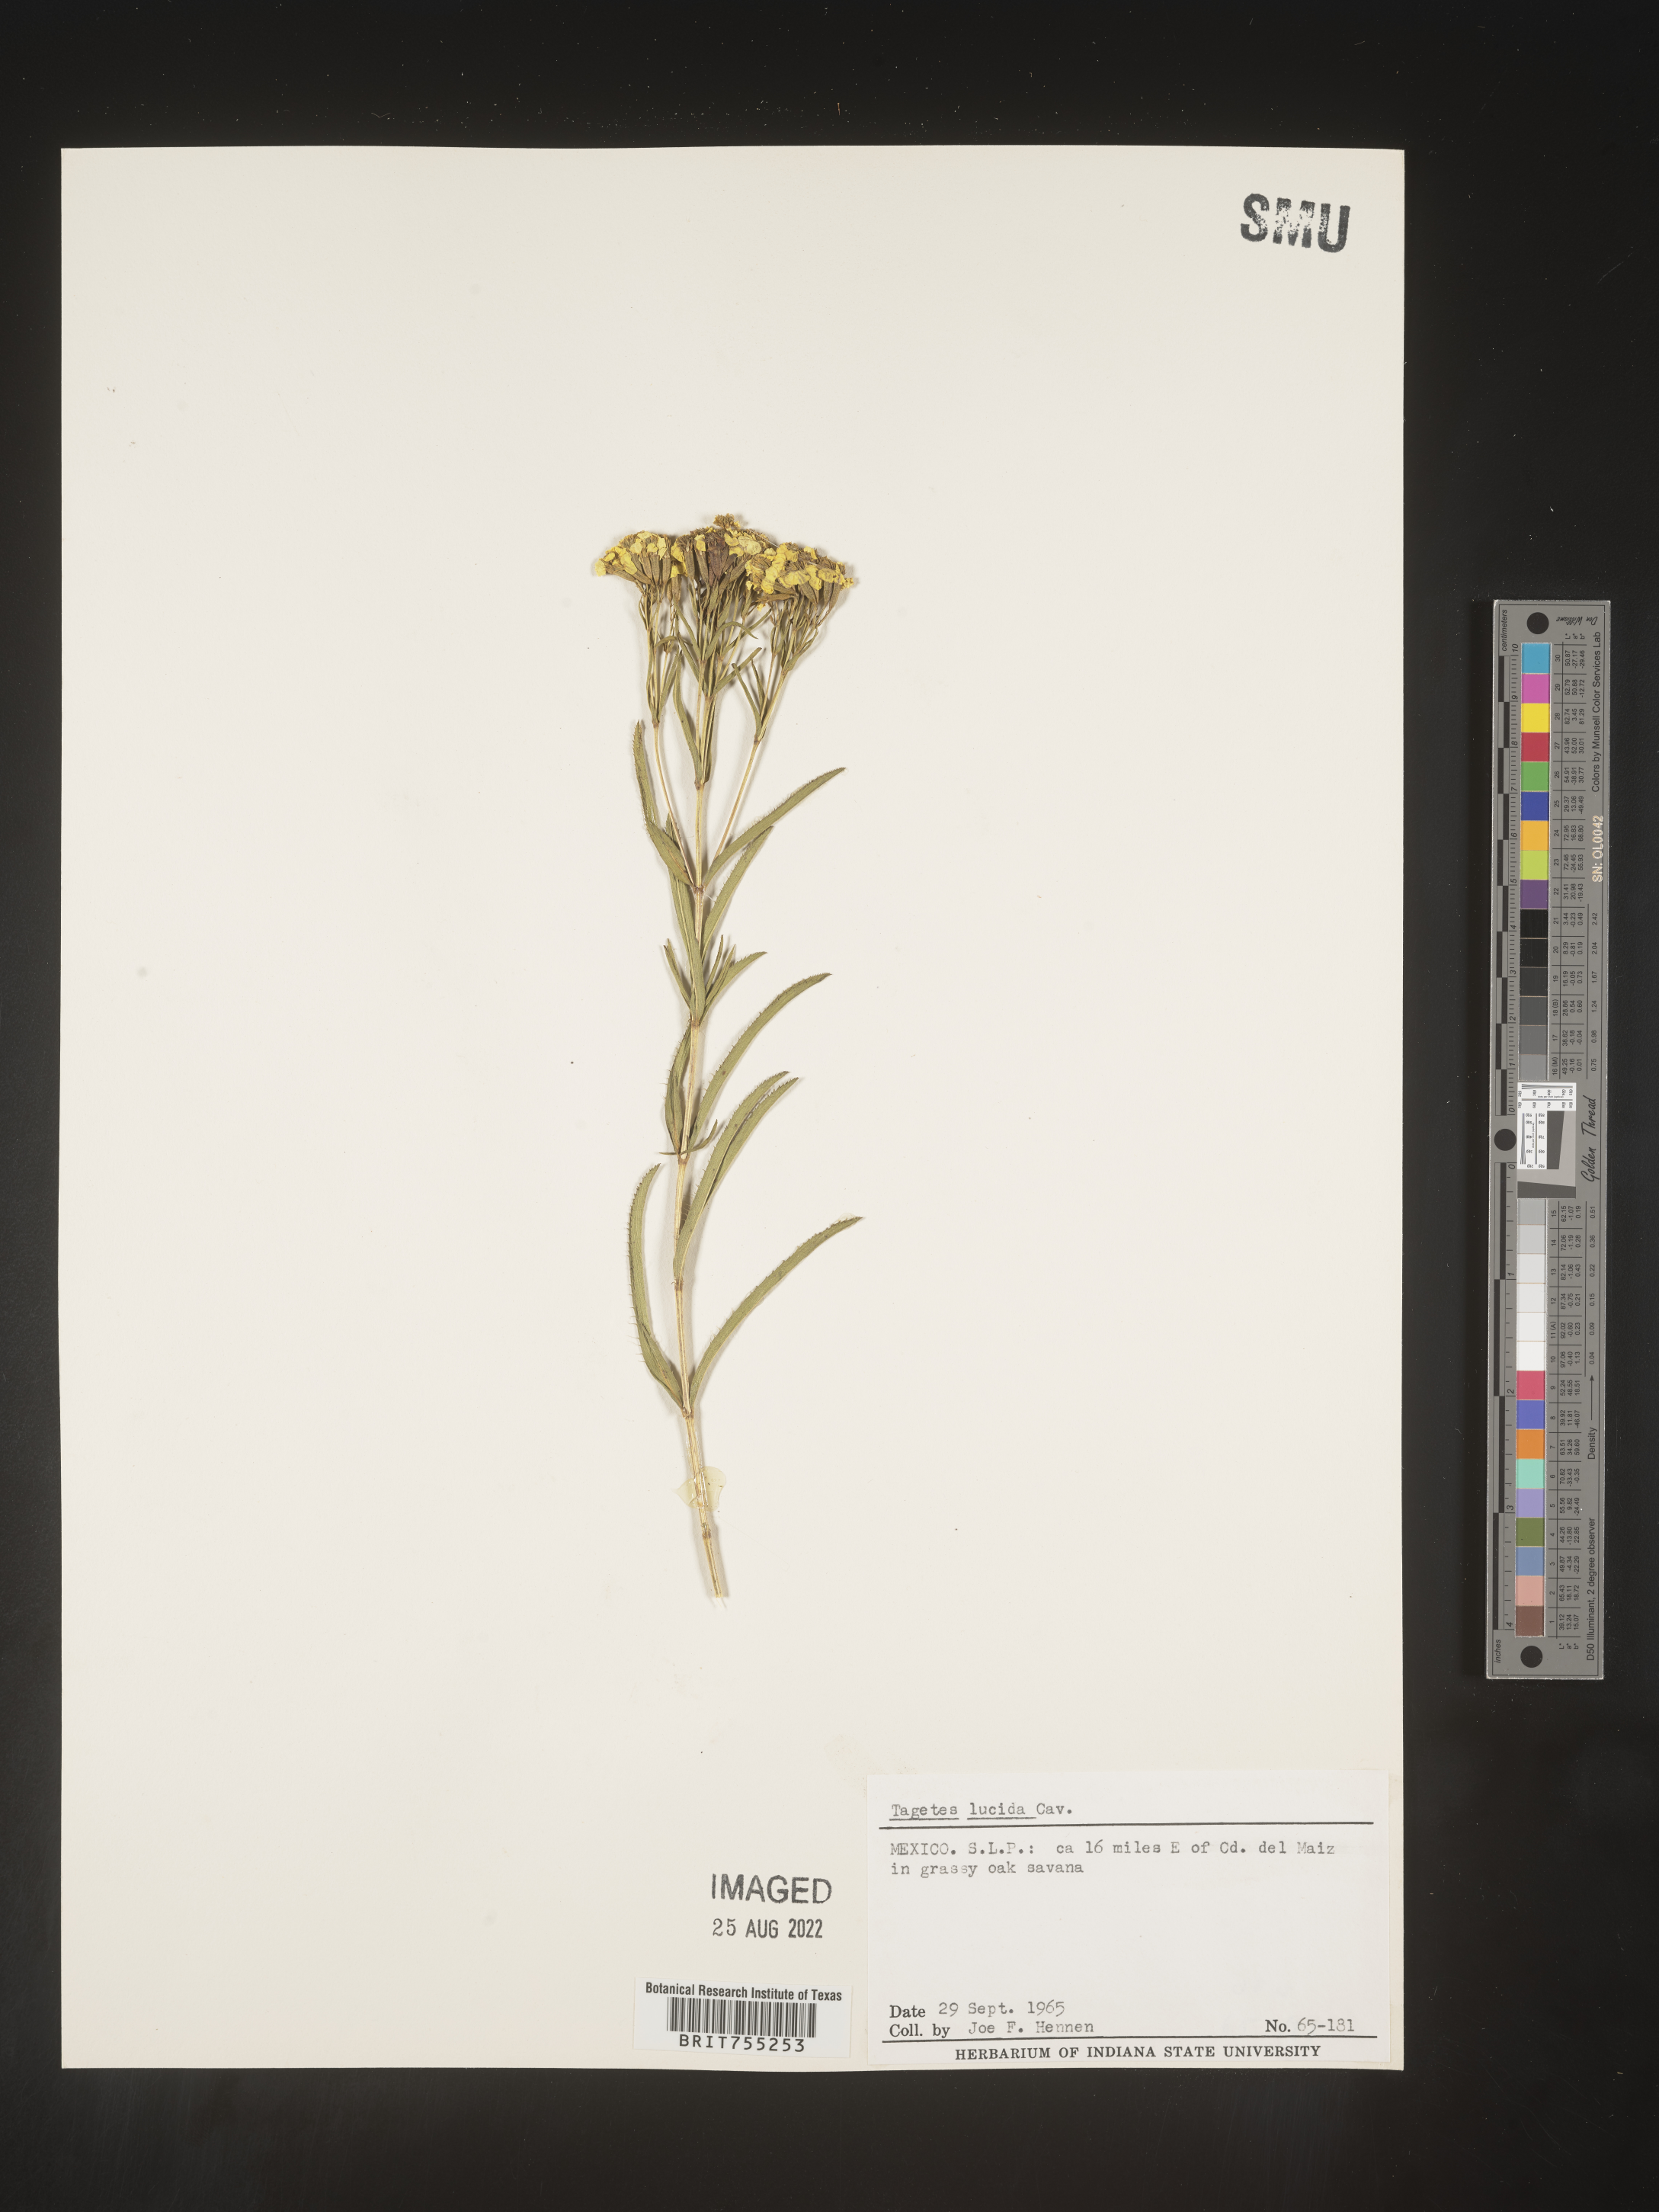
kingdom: Plantae
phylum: Tracheophyta
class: Magnoliopsida
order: Asterales
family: Asteraceae
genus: Tagetes
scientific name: Tagetes lucida
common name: Sweetscented marigold
